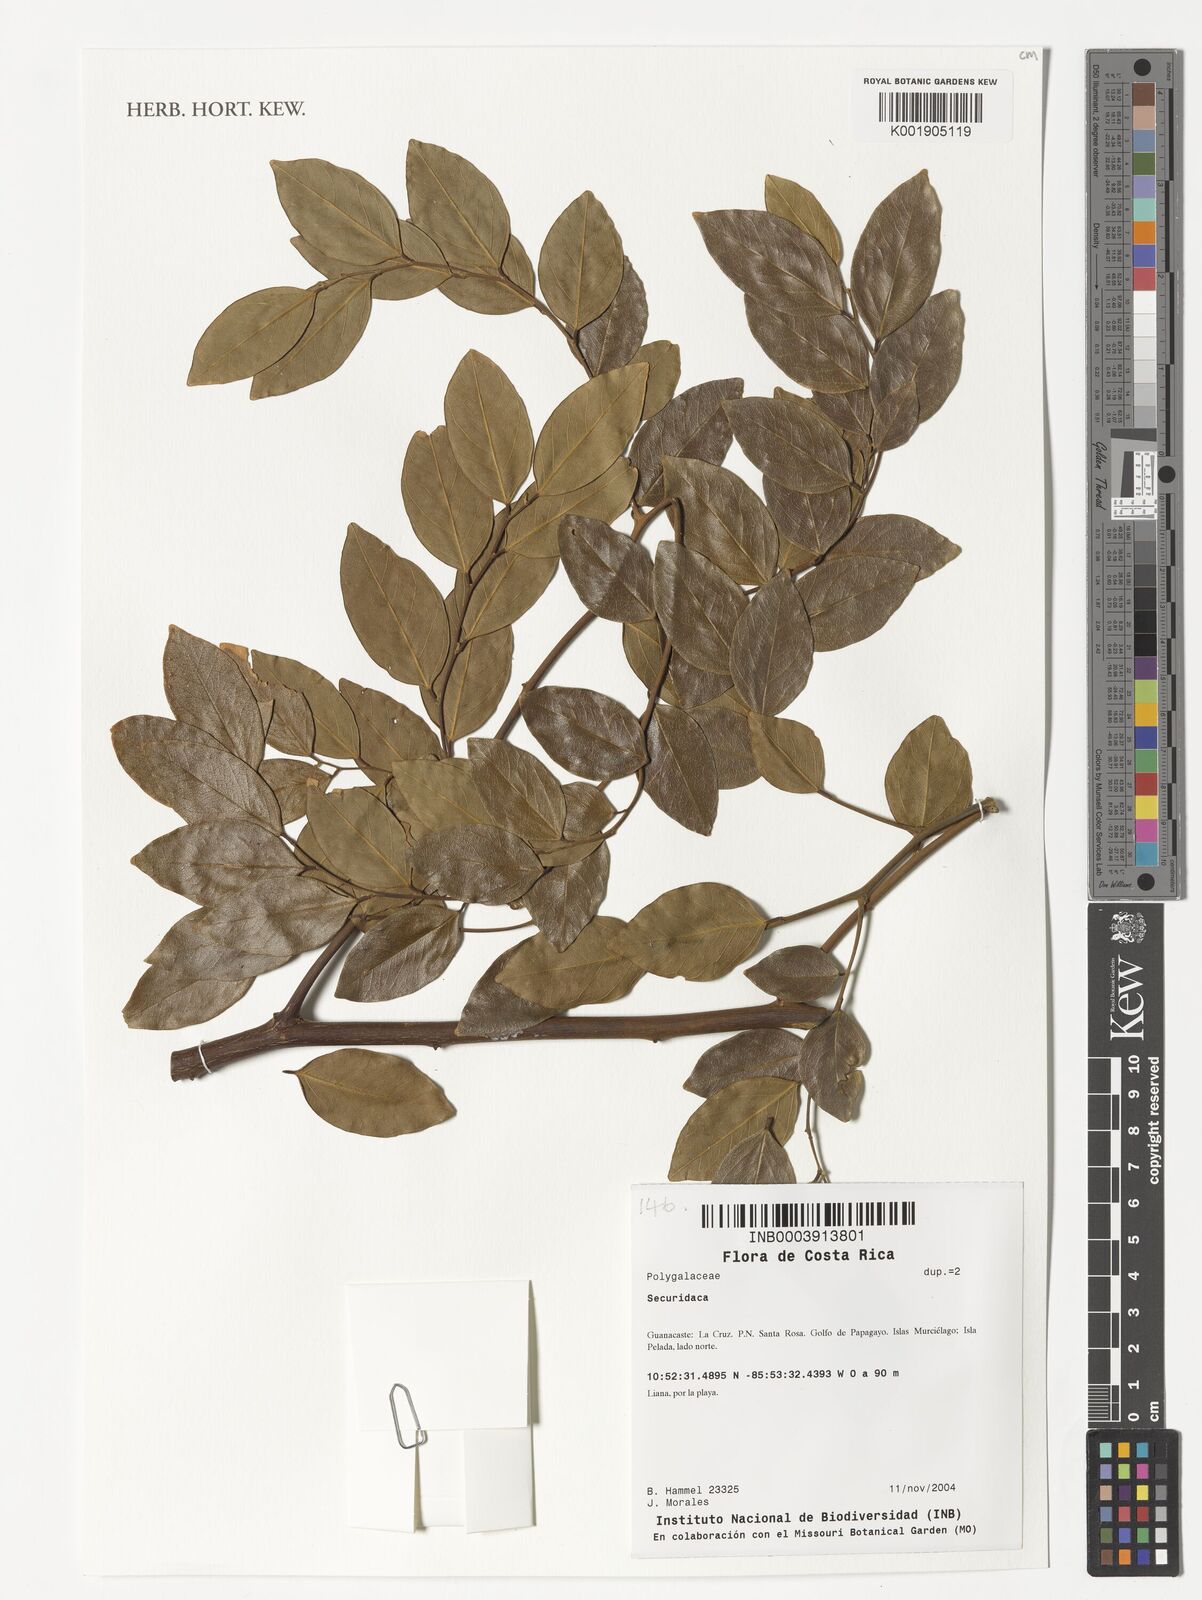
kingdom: Plantae
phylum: Tracheophyta
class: Magnoliopsida
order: Fabales
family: Polygalaceae
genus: Securidaca
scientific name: Securidaca
